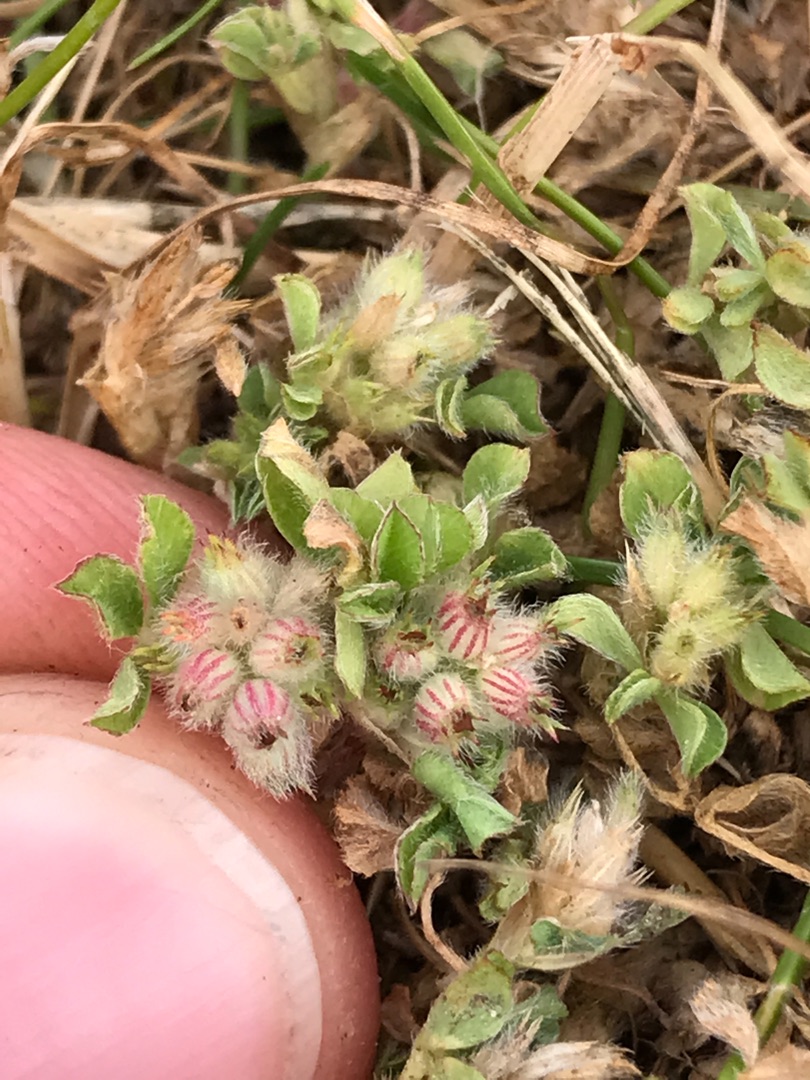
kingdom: Plantae
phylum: Tracheophyta
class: Magnoliopsida
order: Fabales
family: Fabaceae
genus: Trifolium
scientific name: Trifolium striatum
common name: Stribet kløver
